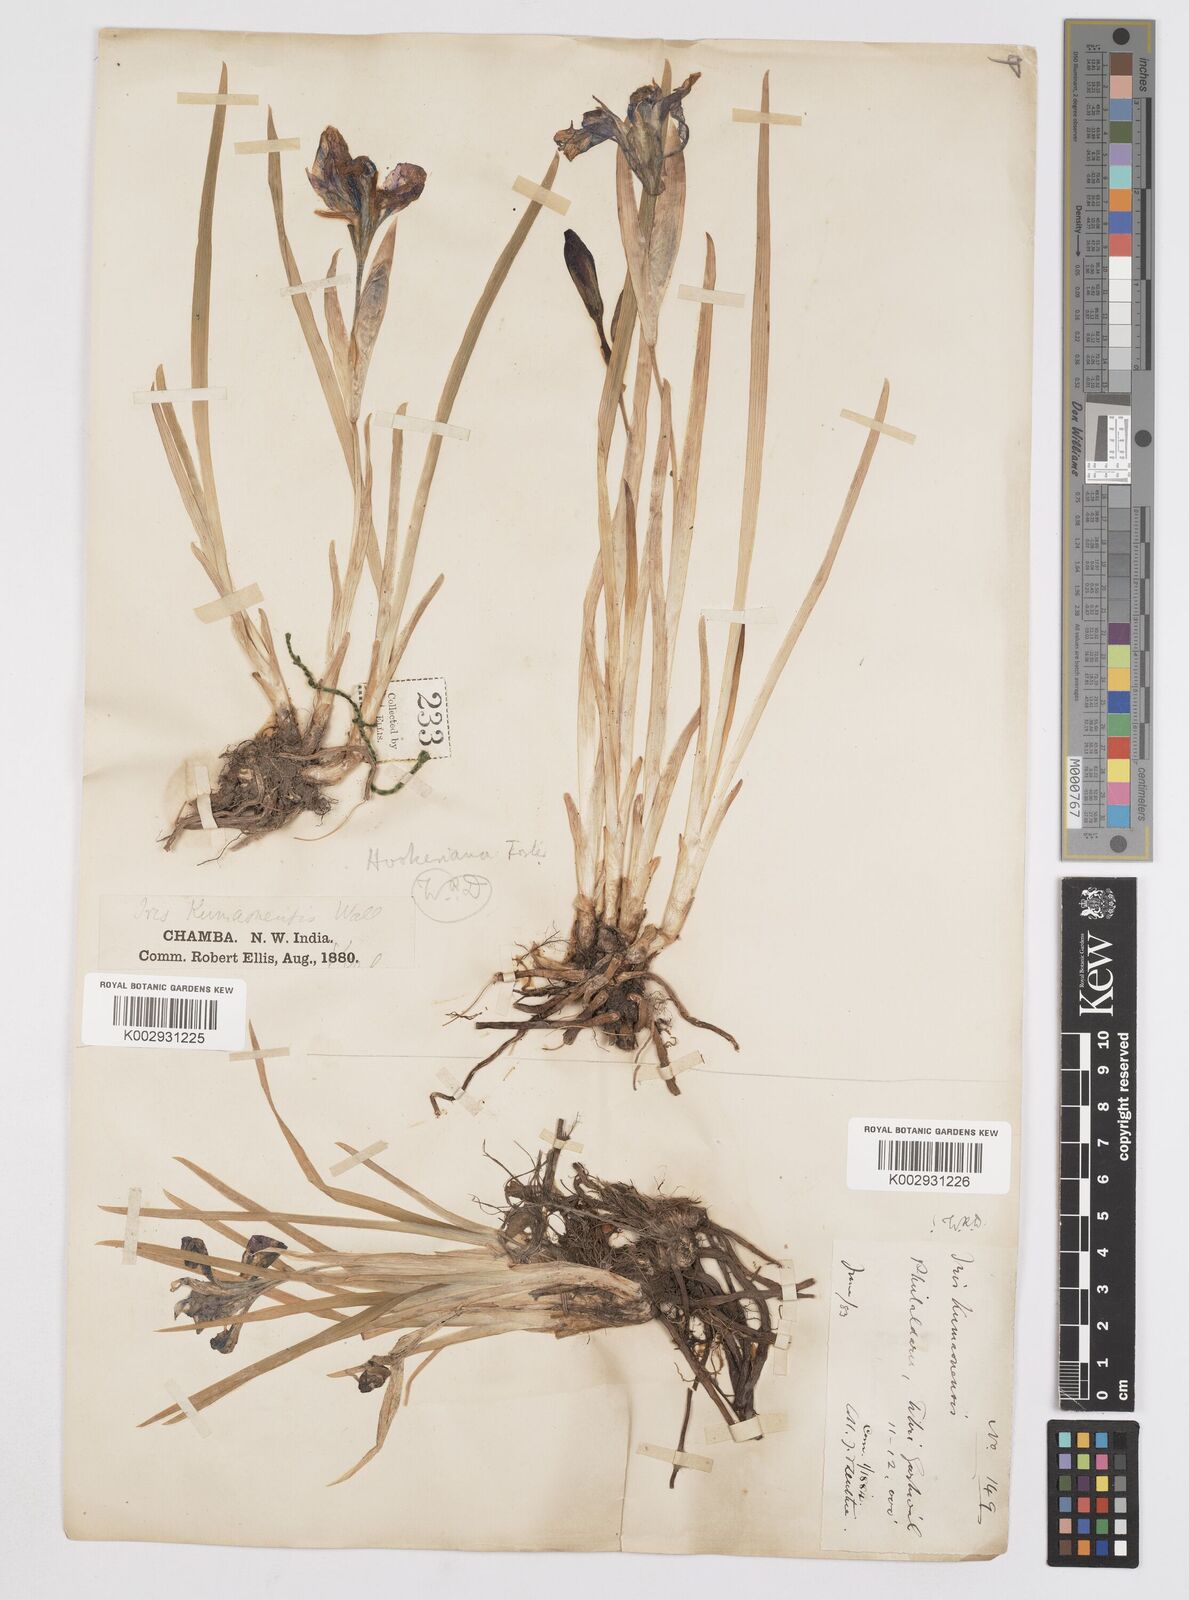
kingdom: Plantae
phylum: Tracheophyta
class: Liliopsida
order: Asparagales
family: Iridaceae
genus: Iris
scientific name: Iris hookeriana
